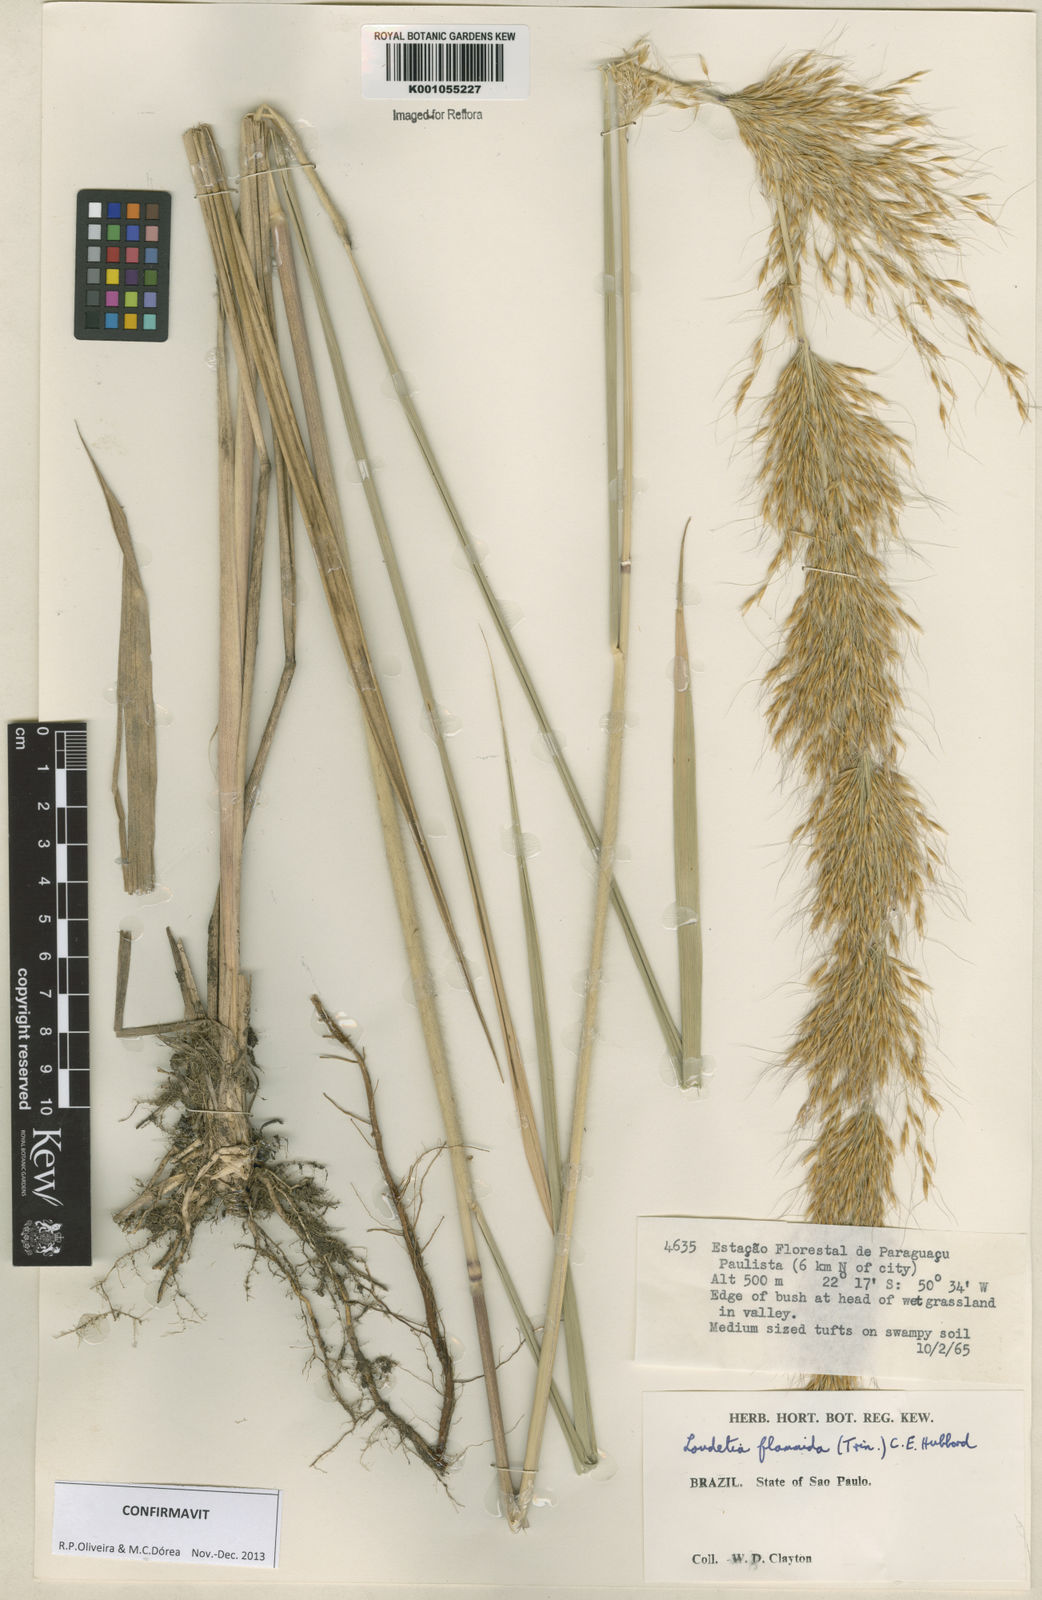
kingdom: Plantae
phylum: Tracheophyta
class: Liliopsida
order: Poales
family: Poaceae
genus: Loudetia
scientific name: Loudetia flammida
